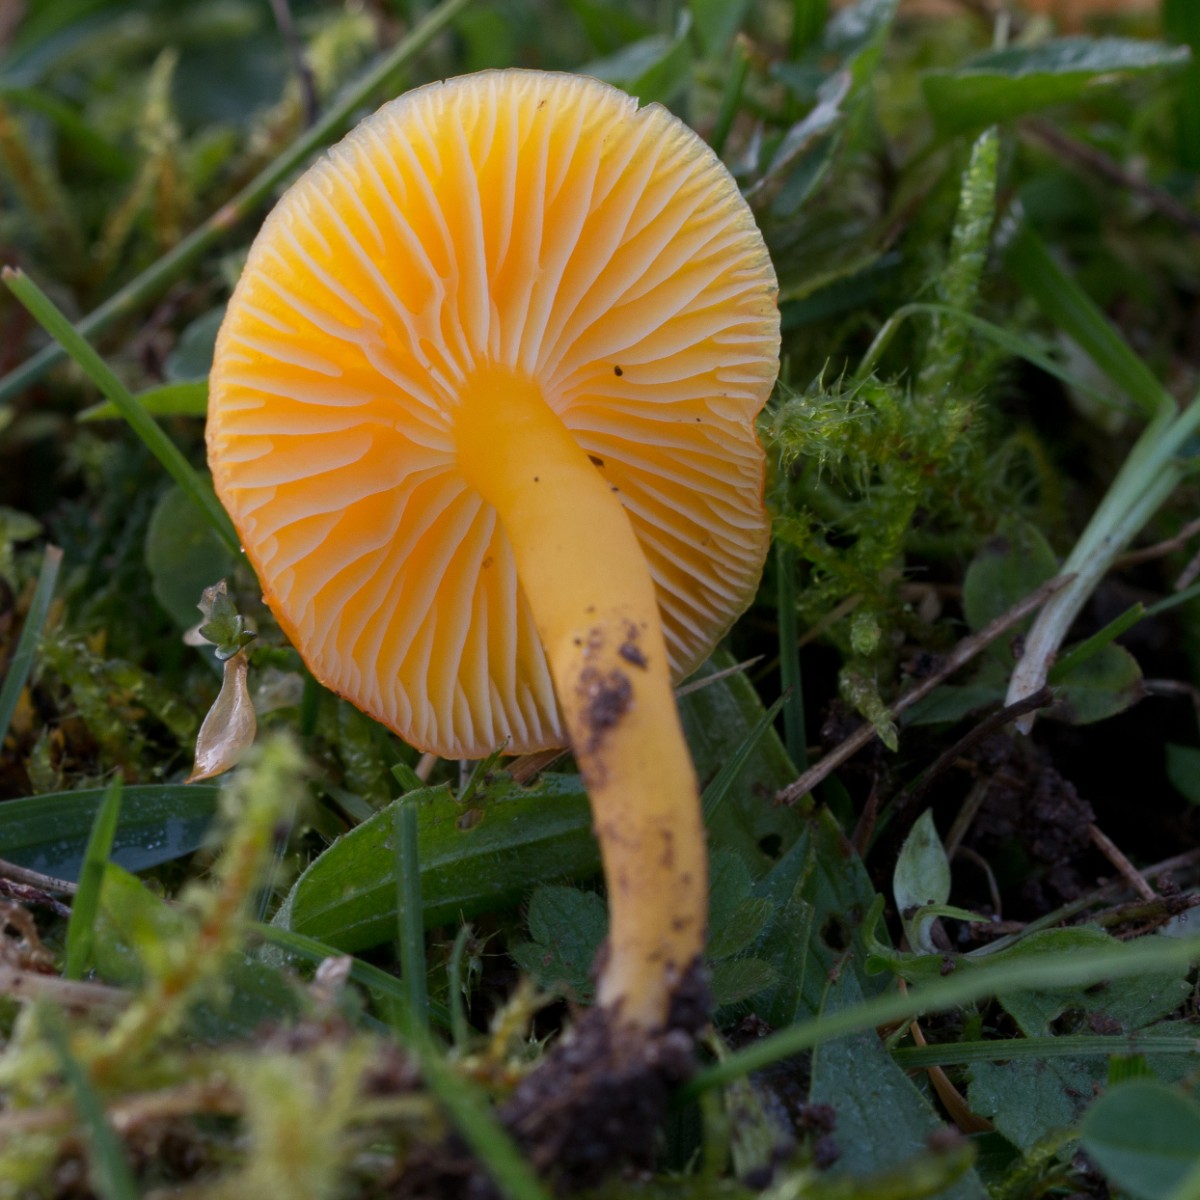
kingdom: Fungi
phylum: Basidiomycota
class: Agaricomycetes
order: Agaricales
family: Hygrophoraceae
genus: Hygrocybe
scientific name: Hygrocybe ceracea
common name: voksgul vokshat
